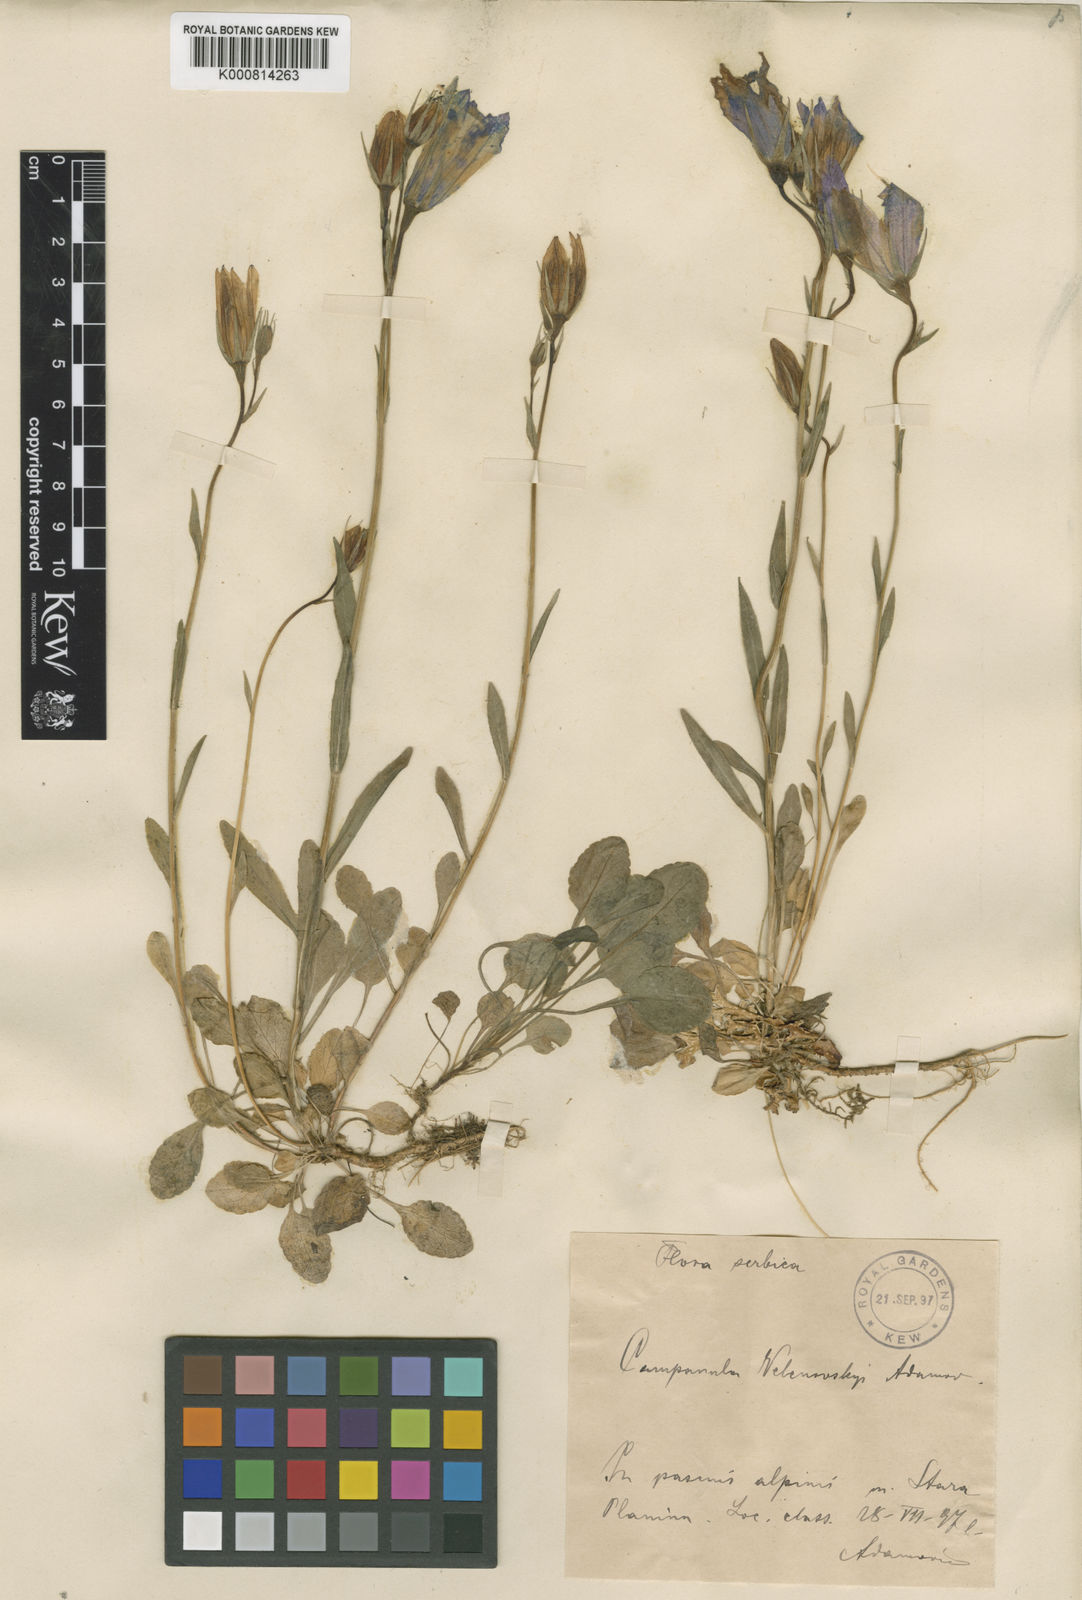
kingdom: Plantae
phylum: Tracheophyta
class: Magnoliopsida
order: Asterales
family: Campanulaceae
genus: Campanula
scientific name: Campanula patula
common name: Spreading bellflower
